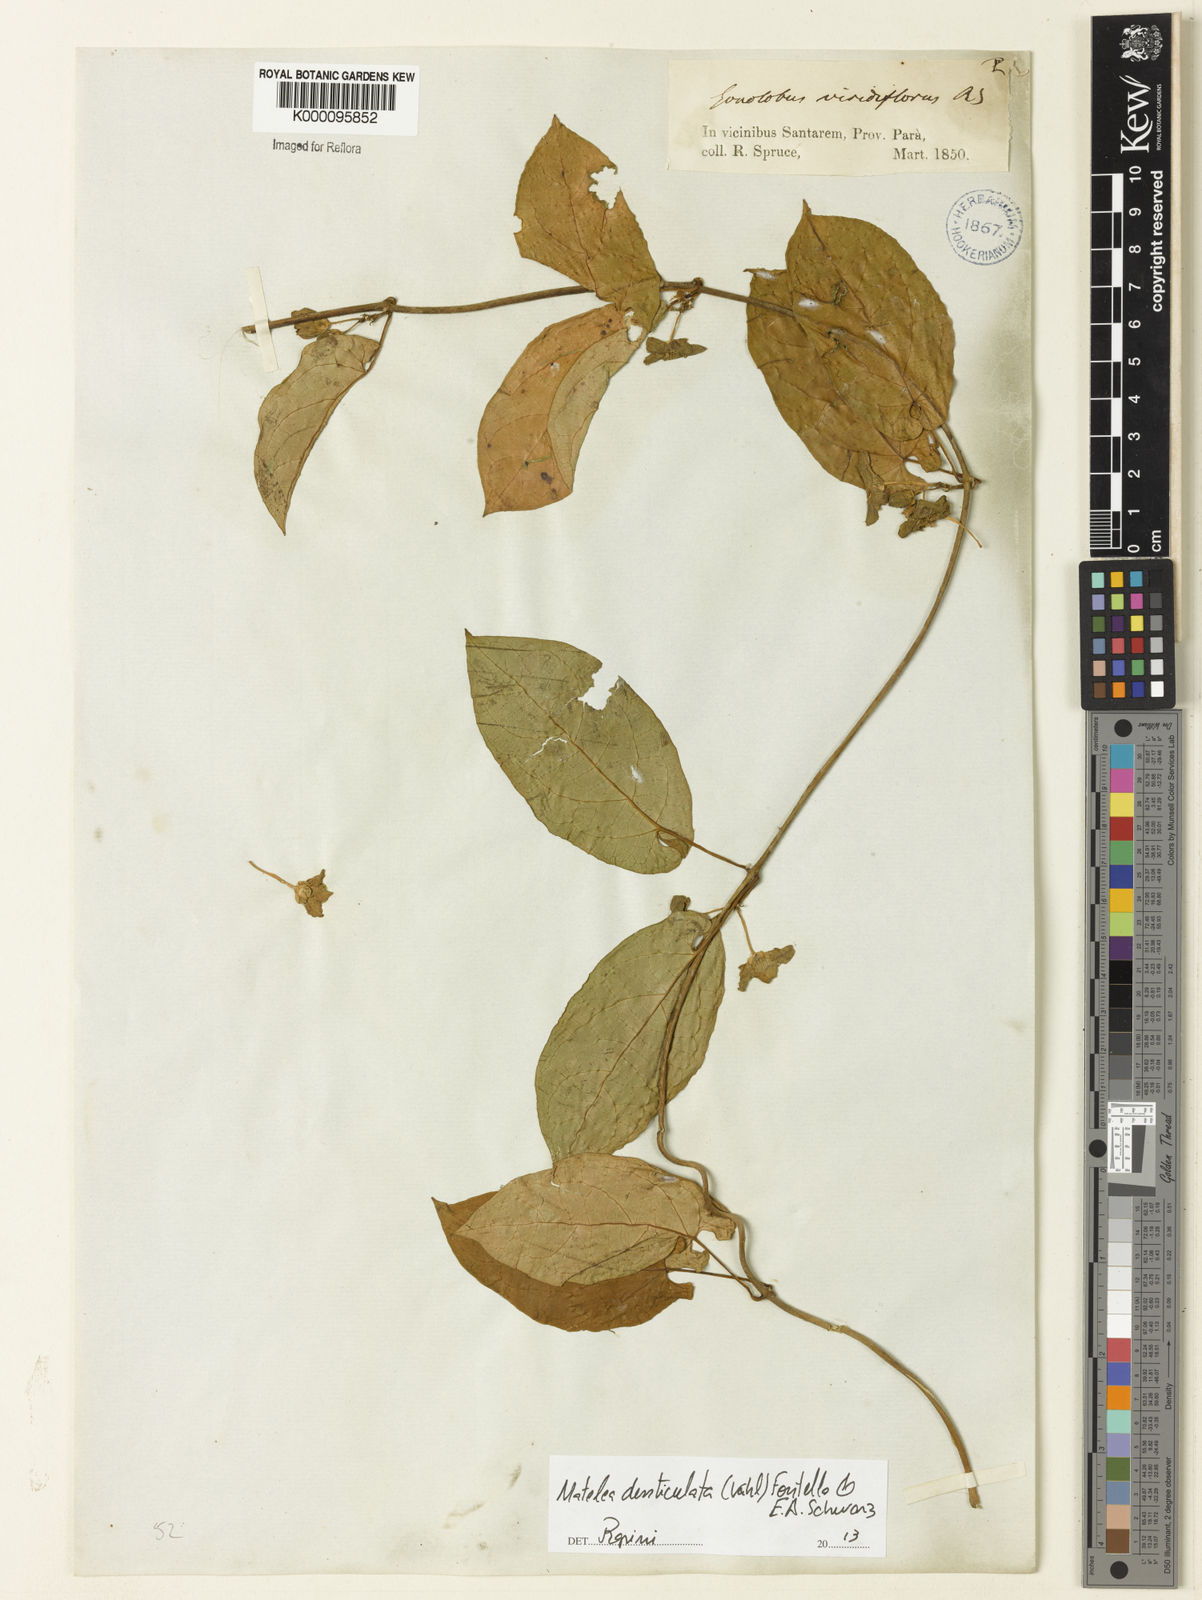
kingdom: Plantae
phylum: Tracheophyta
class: Magnoliopsida
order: Gentianales
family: Apocynaceae
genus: Chloropetalum
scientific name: Chloropetalum denticulatum
